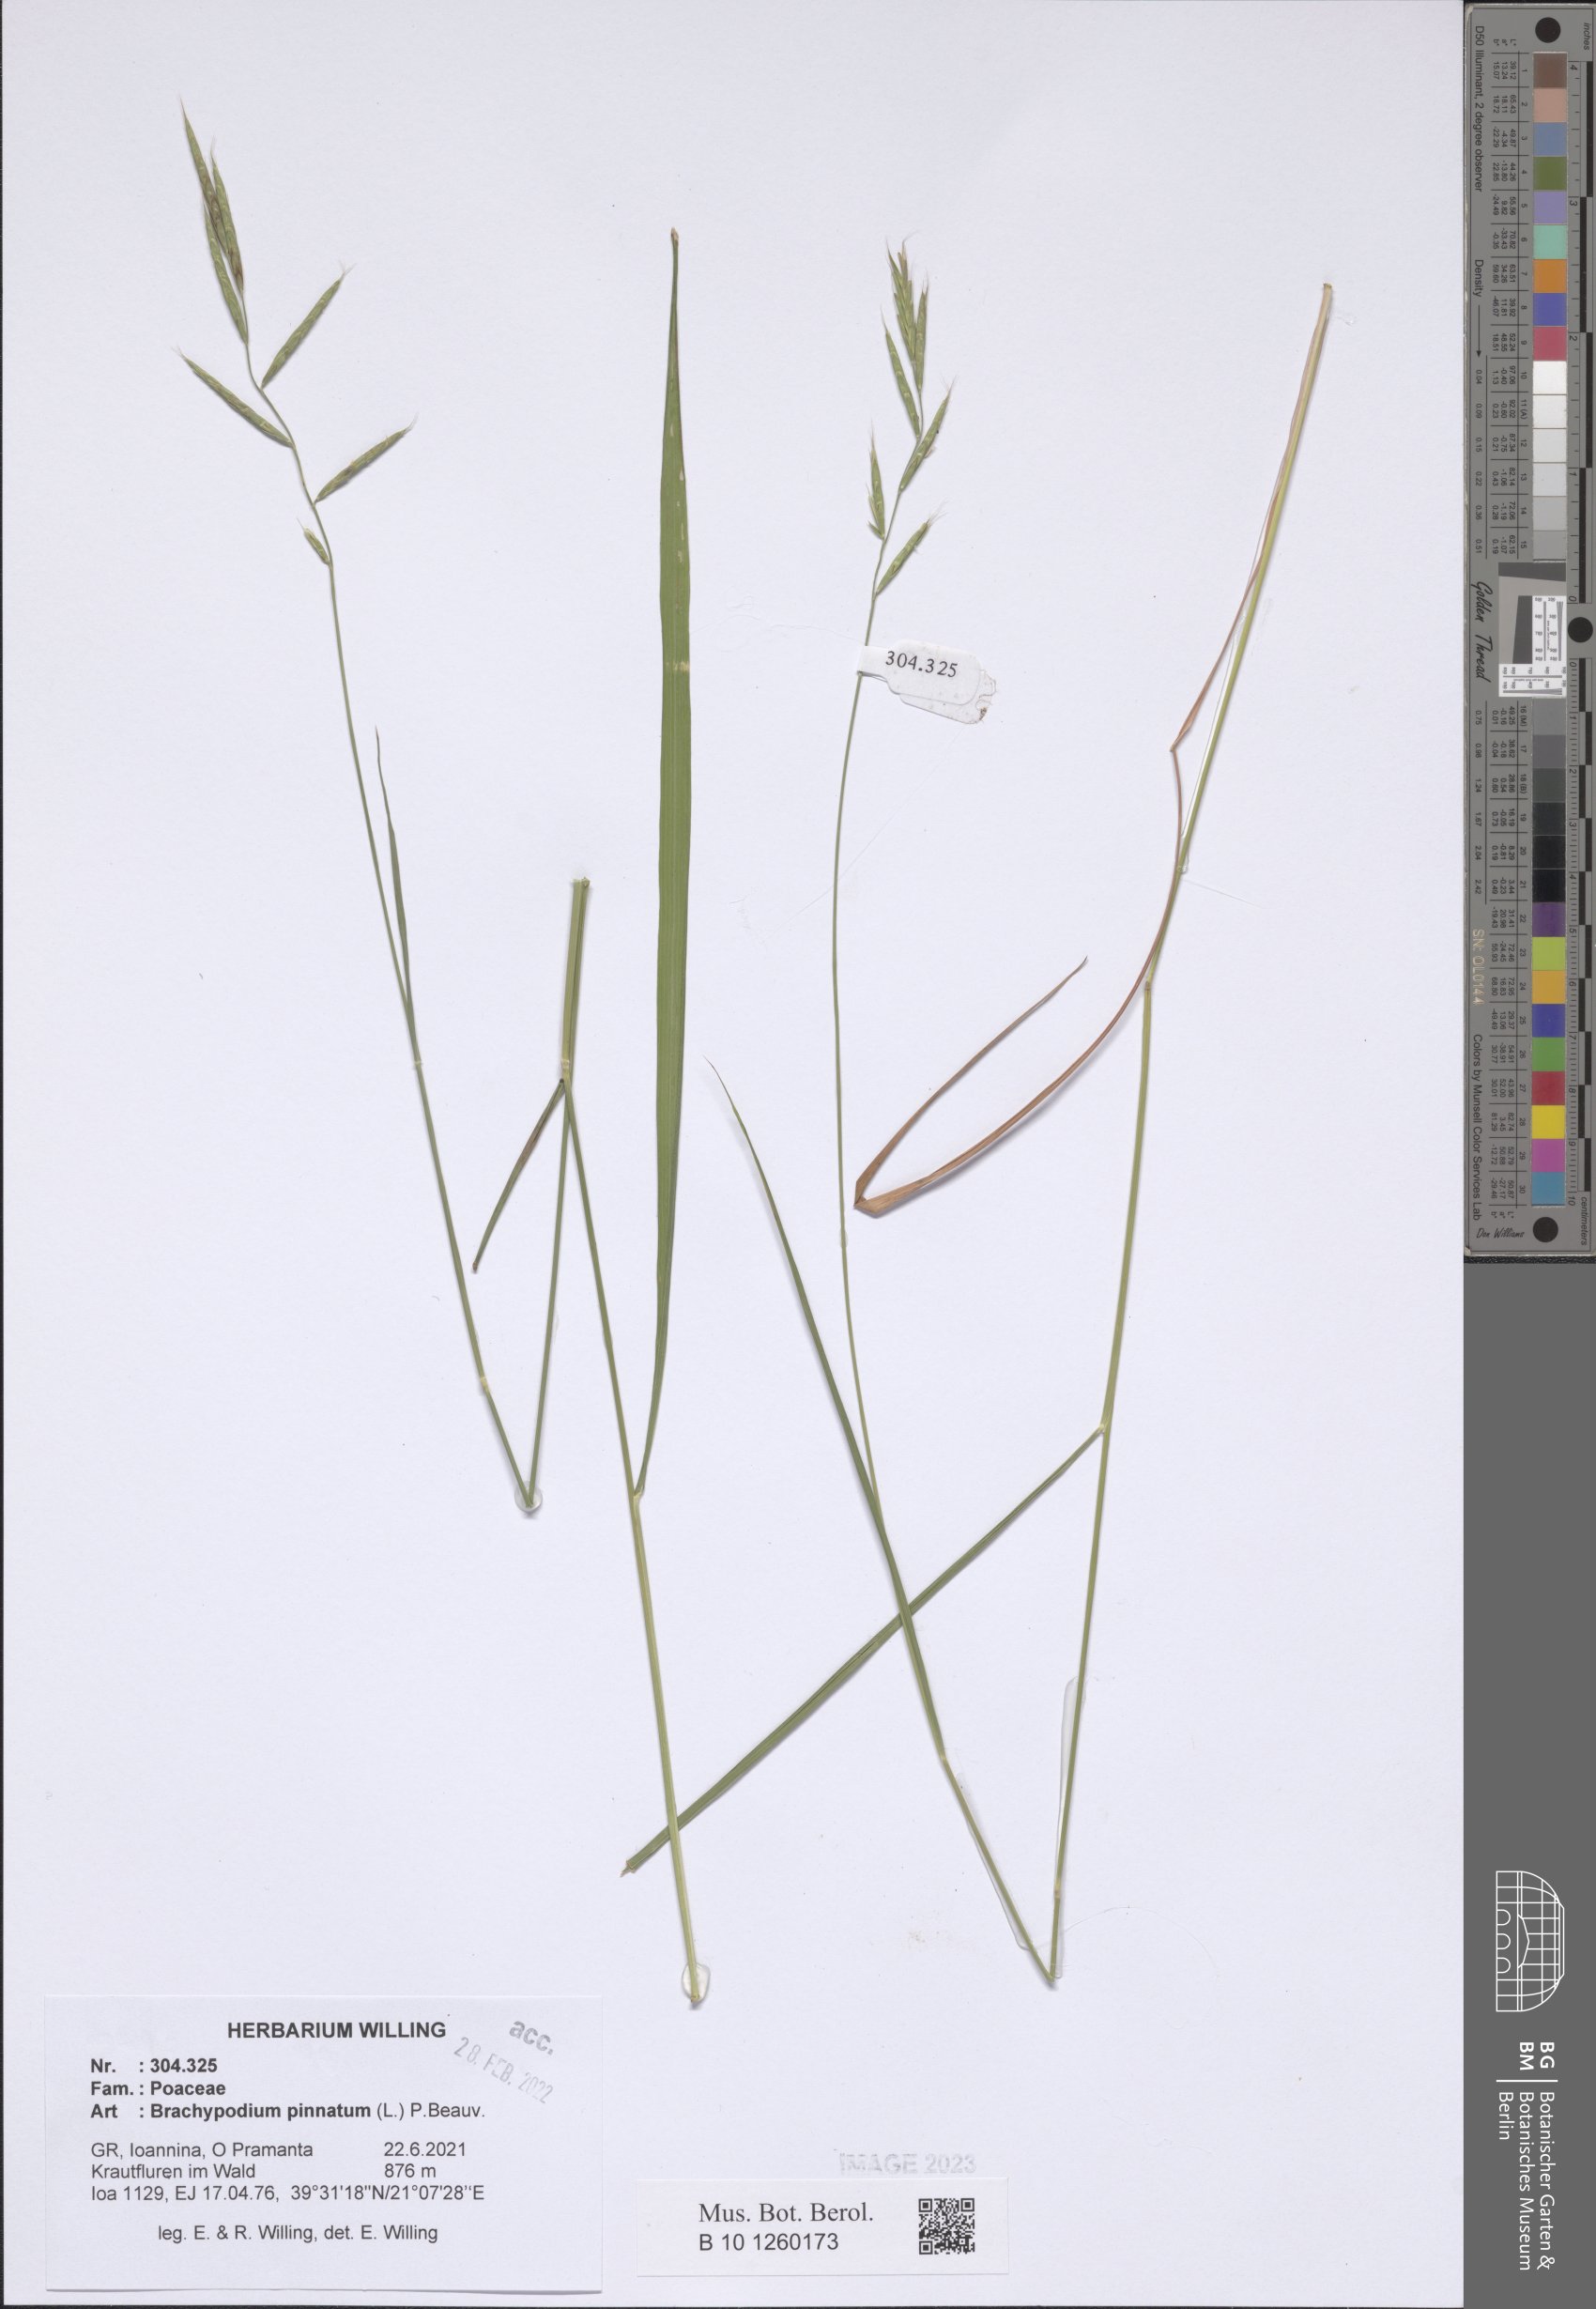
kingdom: Plantae
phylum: Tracheophyta
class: Liliopsida
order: Poales
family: Poaceae
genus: Brachypodium
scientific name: Brachypodium pinnatum
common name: Tor grass
